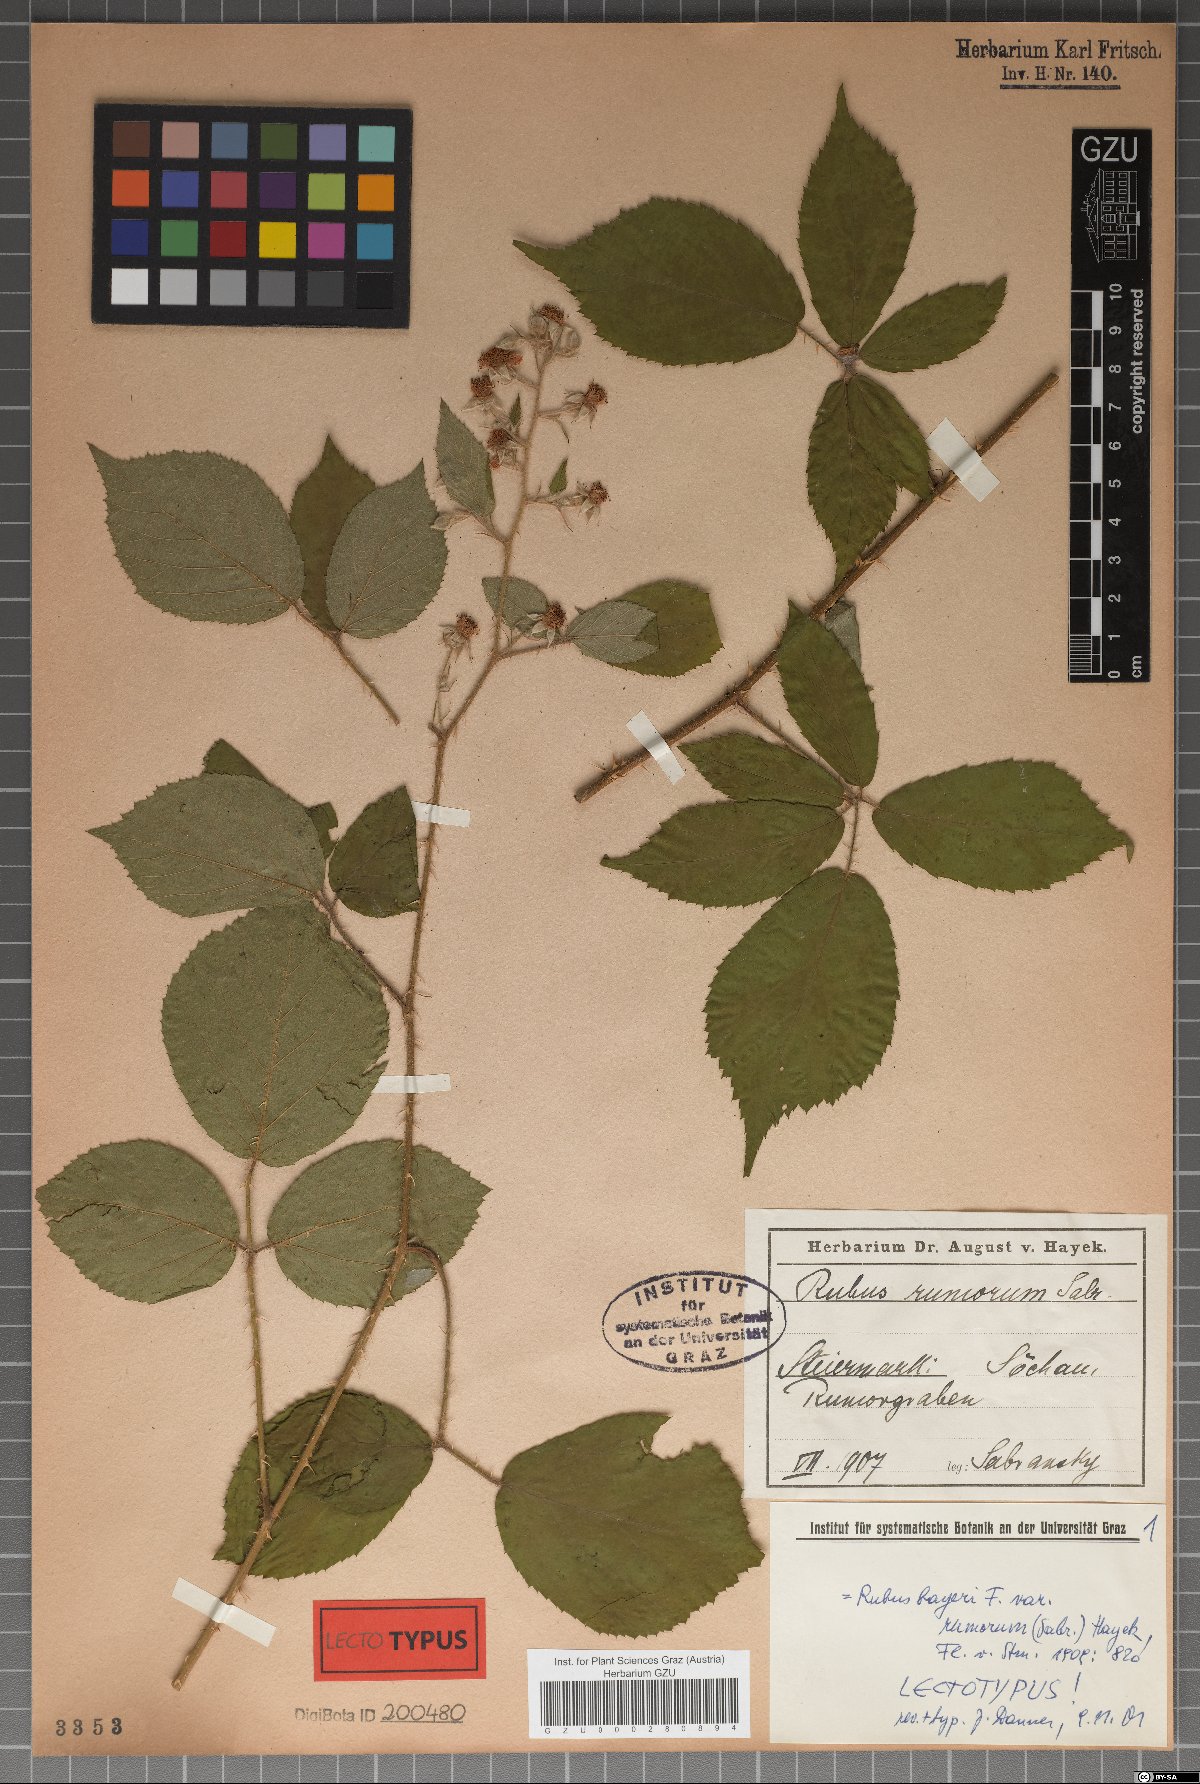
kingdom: Plantae
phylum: Tracheophyta
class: Magnoliopsida
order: Rosales
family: Rosaceae
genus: Rubus
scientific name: Rubus rivularis
